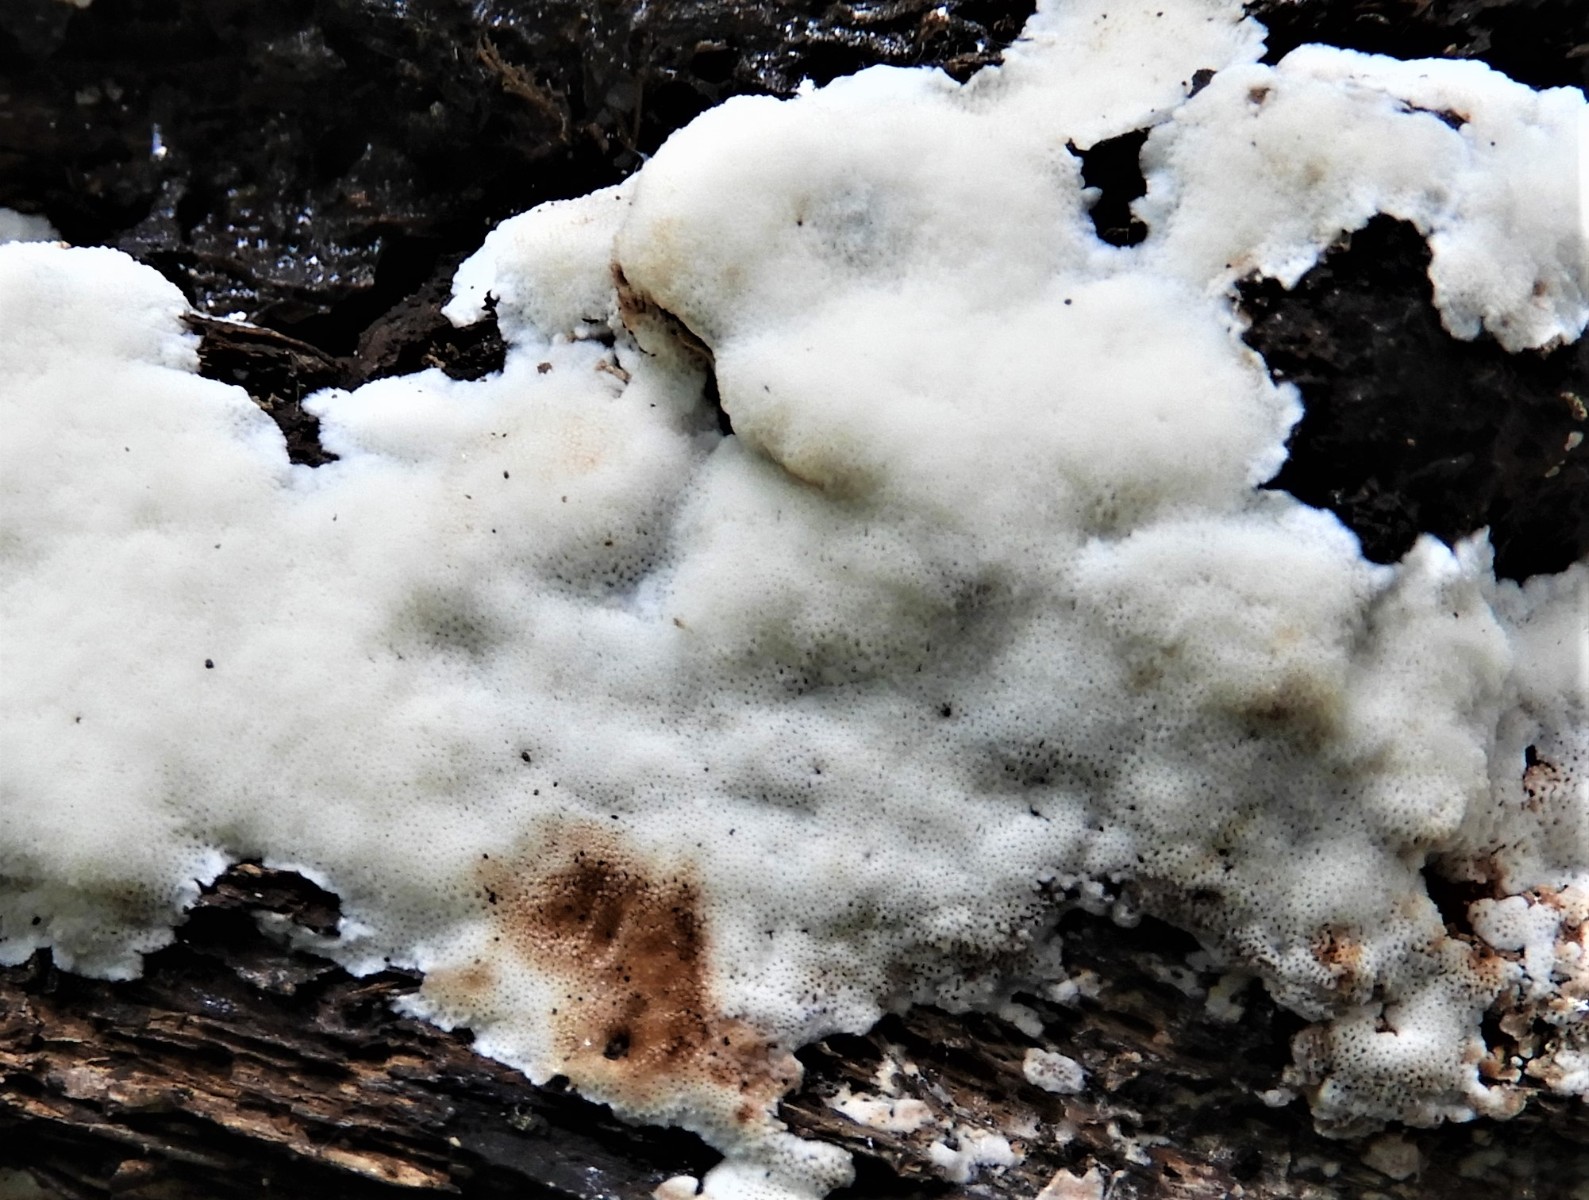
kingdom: Fungi
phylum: Basidiomycota
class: Agaricomycetes
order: Polyporales
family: Meripilaceae
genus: Rigidoporus
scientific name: Rigidoporus sanguinolentus
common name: blod-skorpeporesvamp
